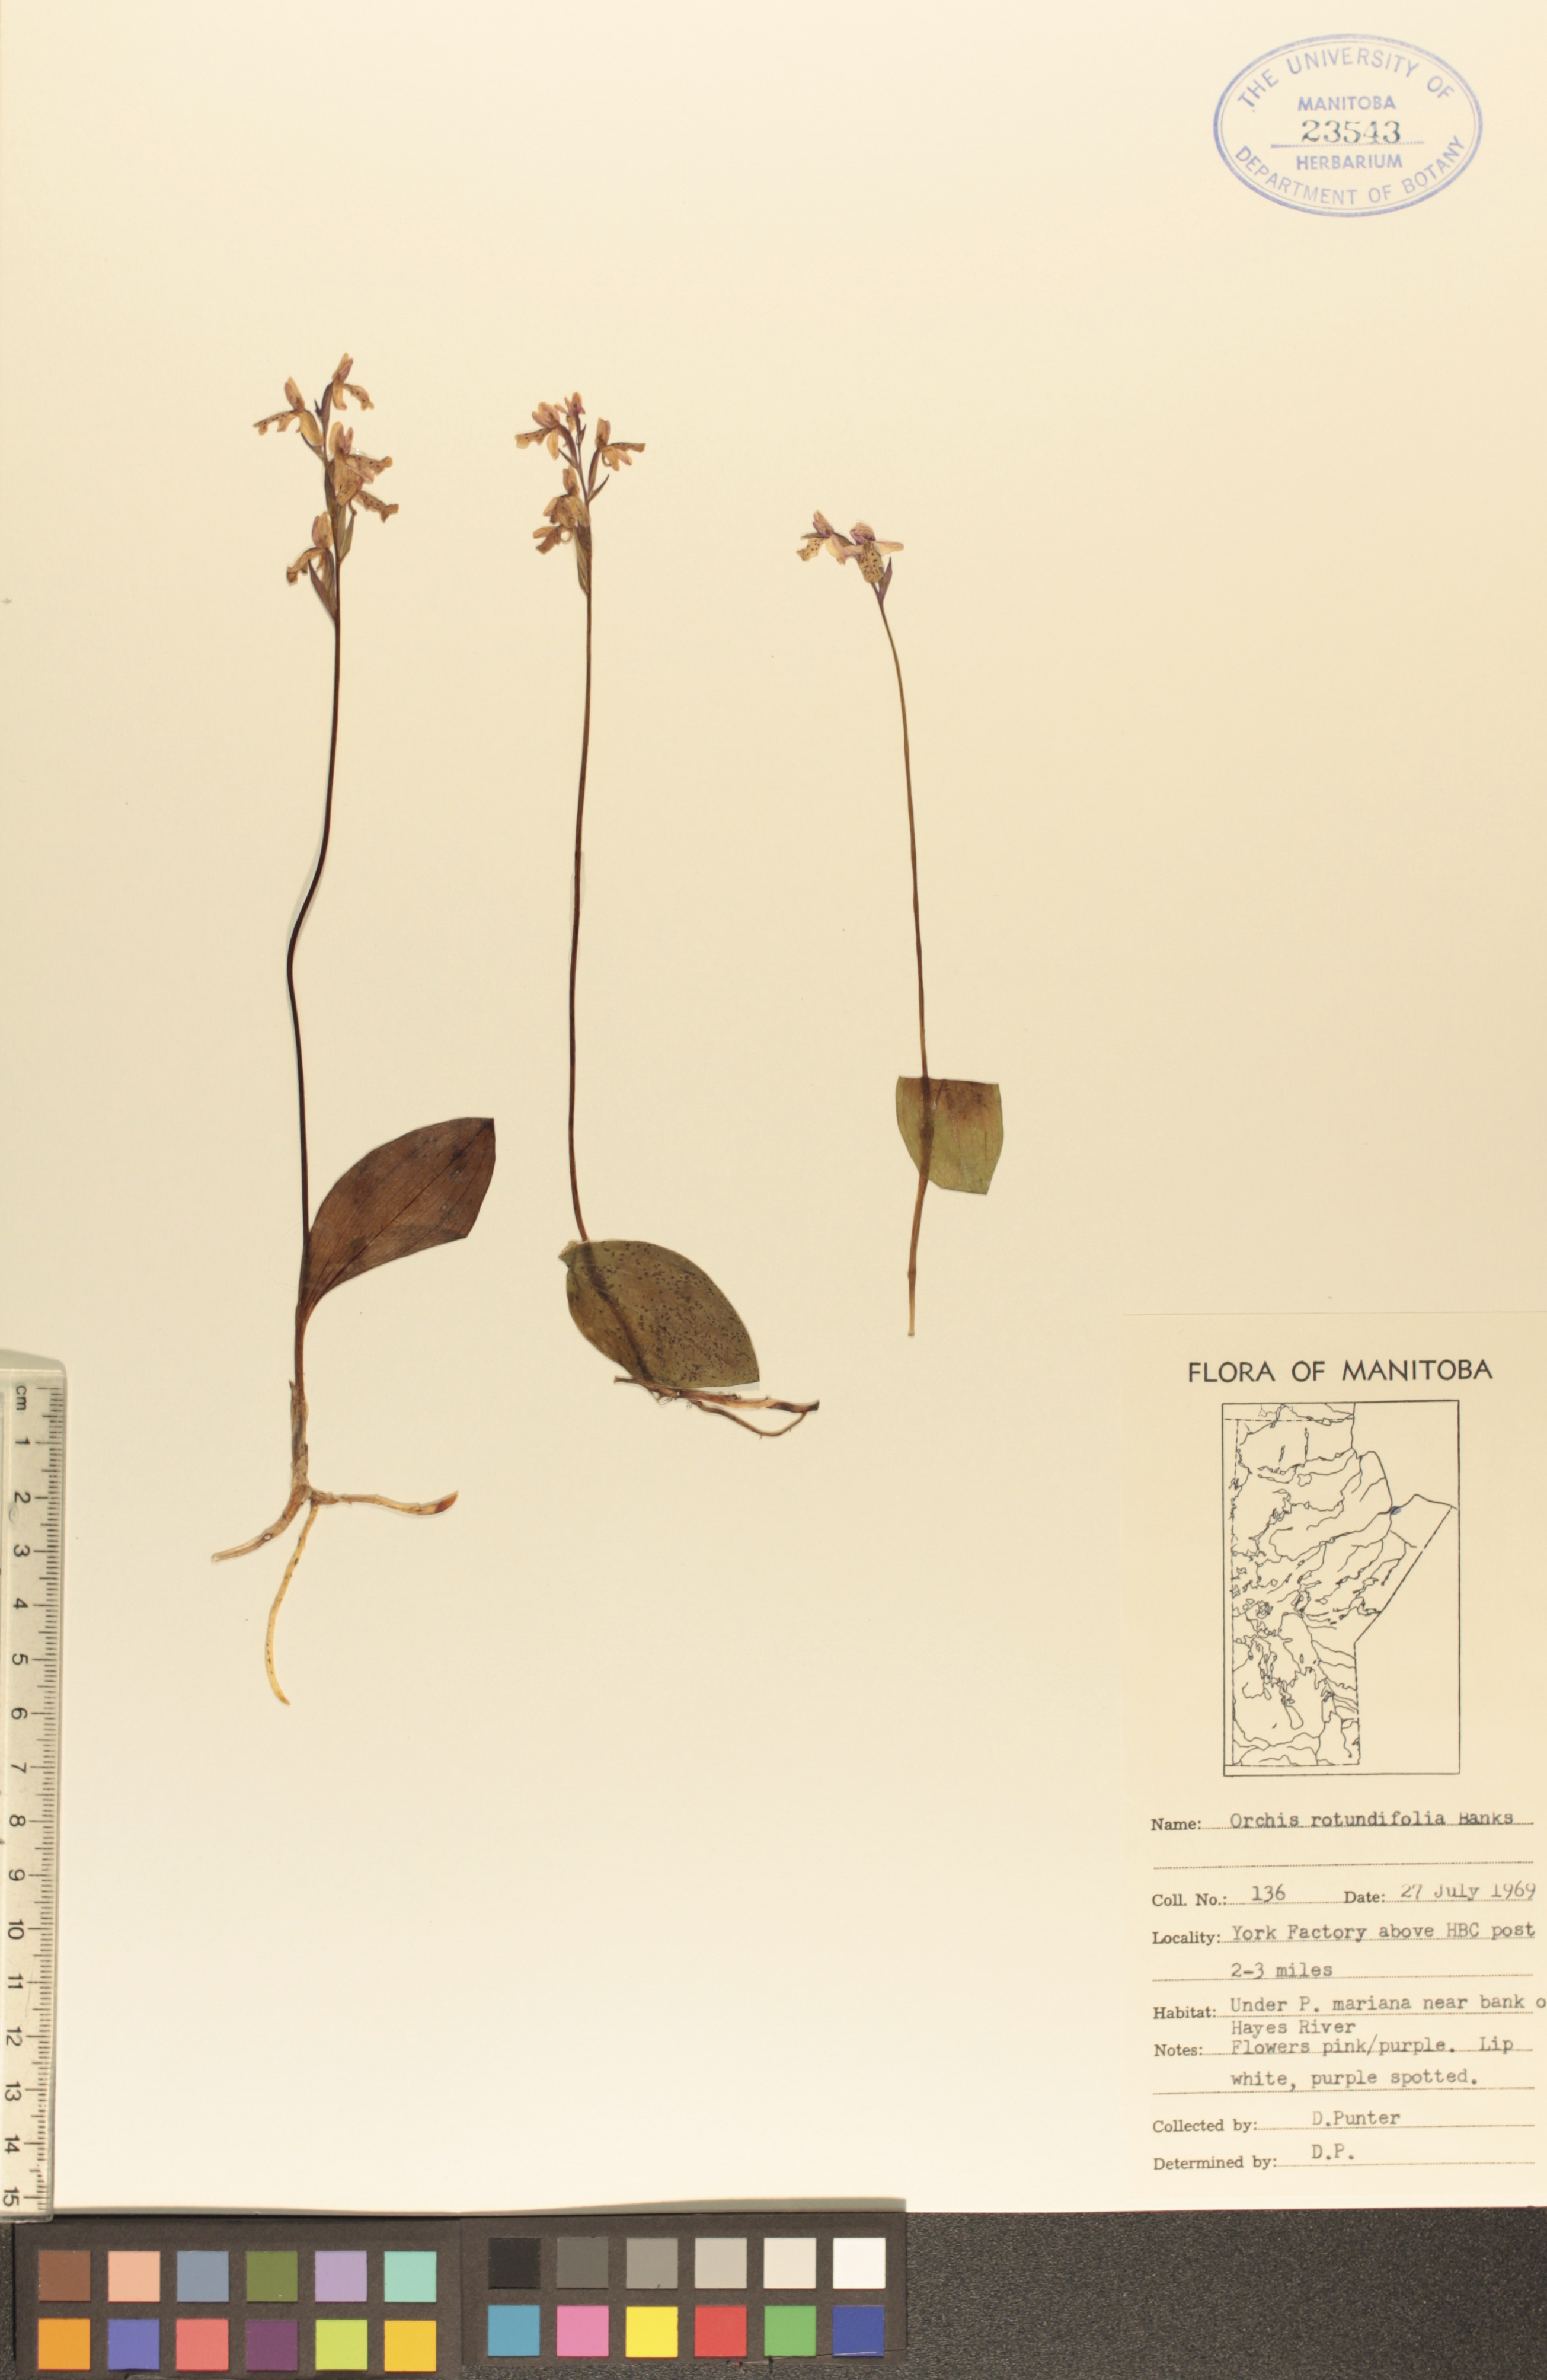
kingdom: Plantae
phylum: Tracheophyta
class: Liliopsida
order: Asparagales
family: Orchidaceae
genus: Galearis
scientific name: Galearis rotundifolia
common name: One-leaved orchis
